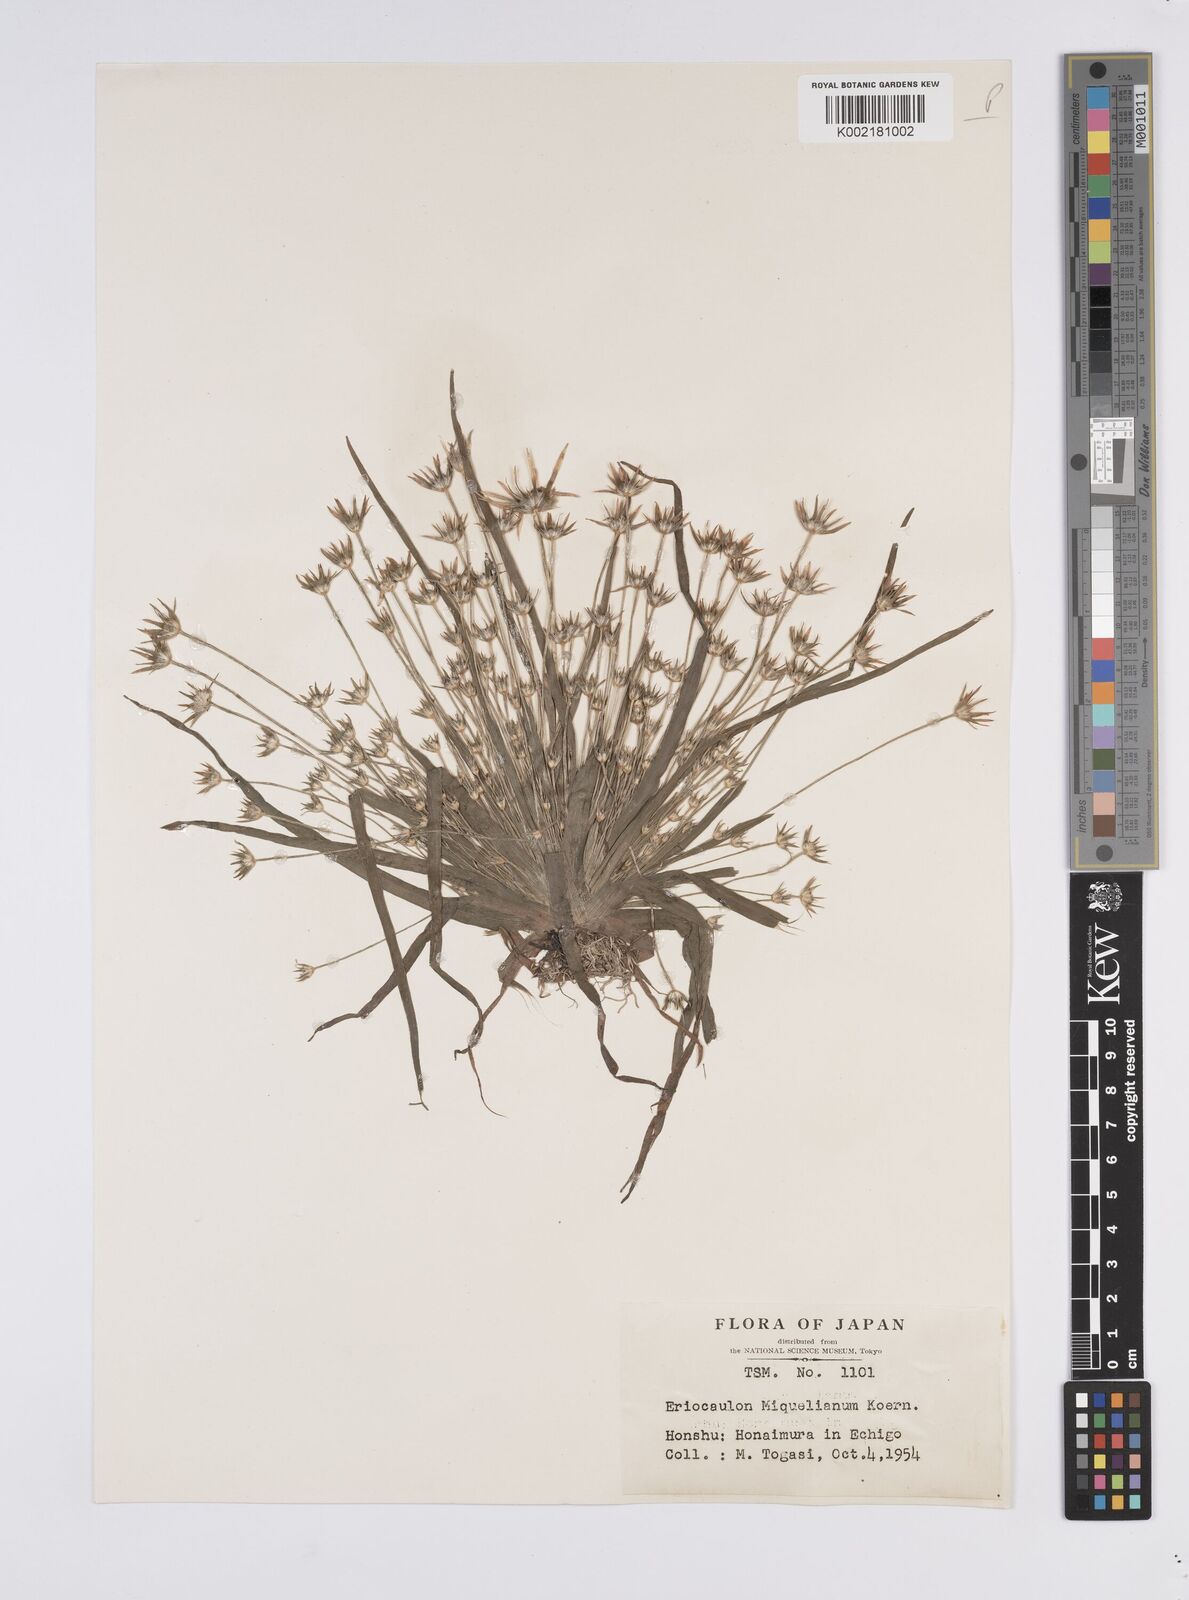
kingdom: Plantae
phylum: Tracheophyta
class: Liliopsida
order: Poales
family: Eriocaulaceae
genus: Eriocaulon
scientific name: Eriocaulon miquelianum
